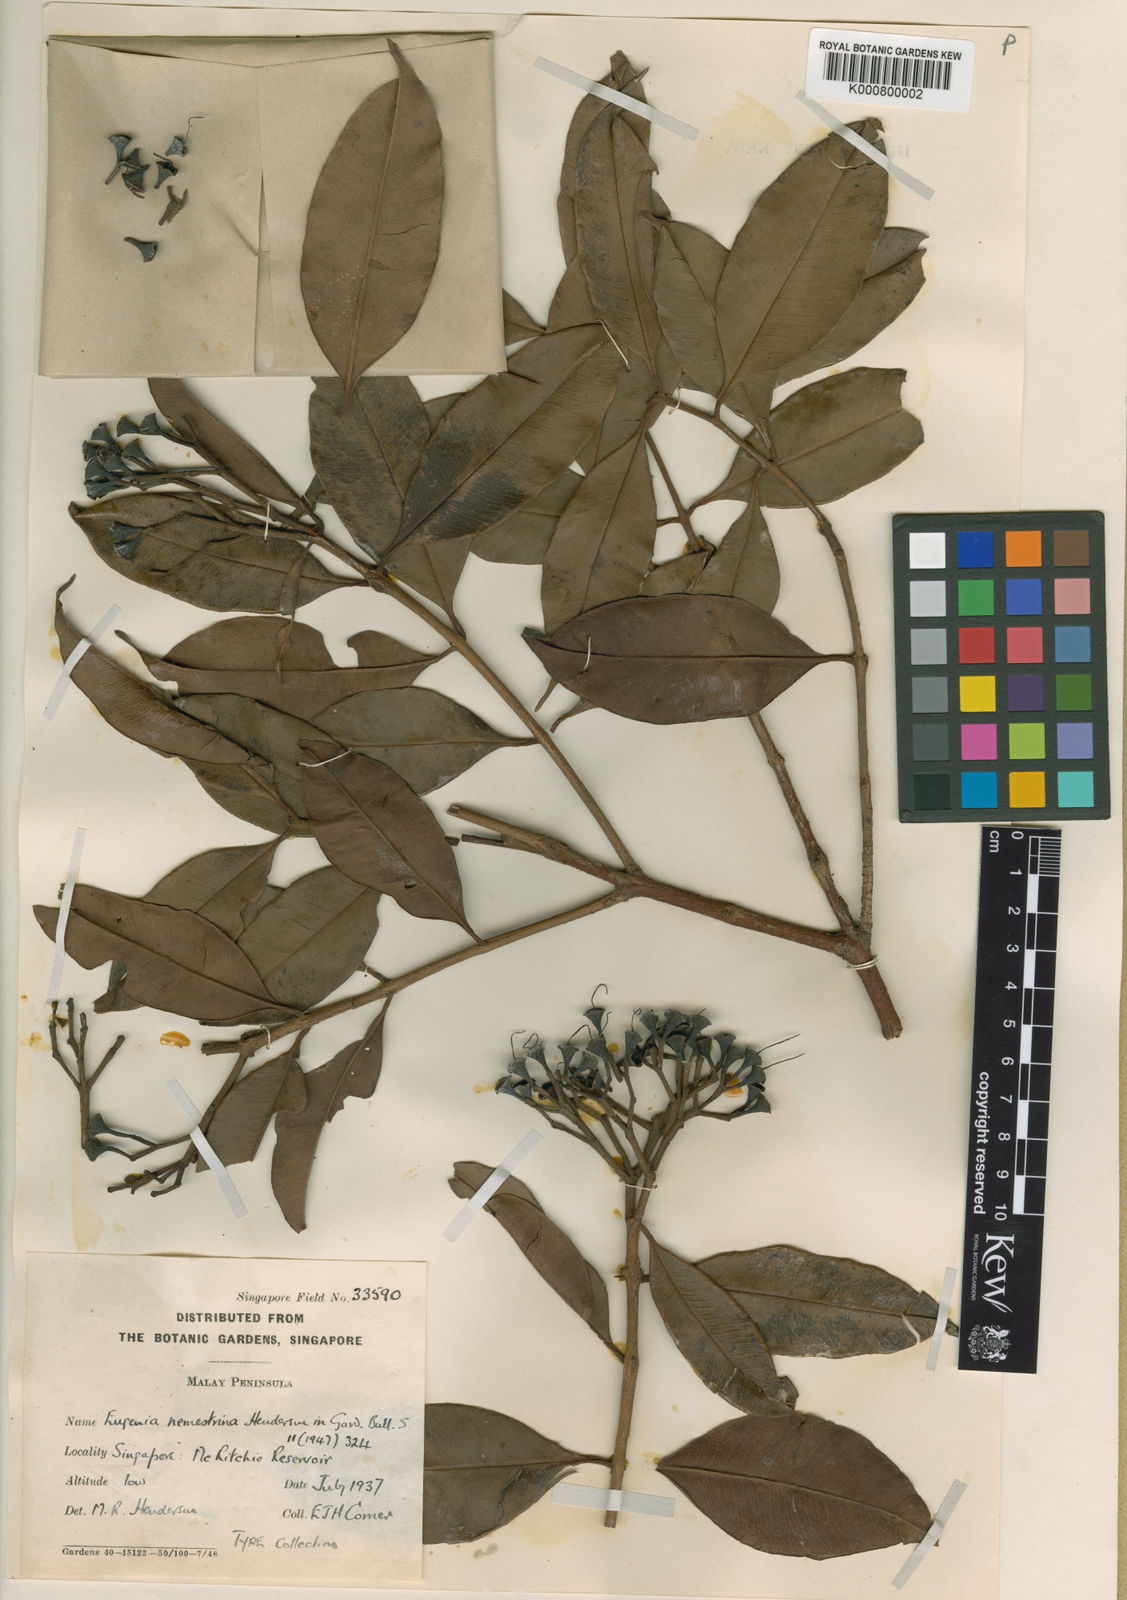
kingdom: Plantae
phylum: Tracheophyta
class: Magnoliopsida
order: Myrtales
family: Myrtaceae
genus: Syzygium
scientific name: Syzygium subcrenatum
